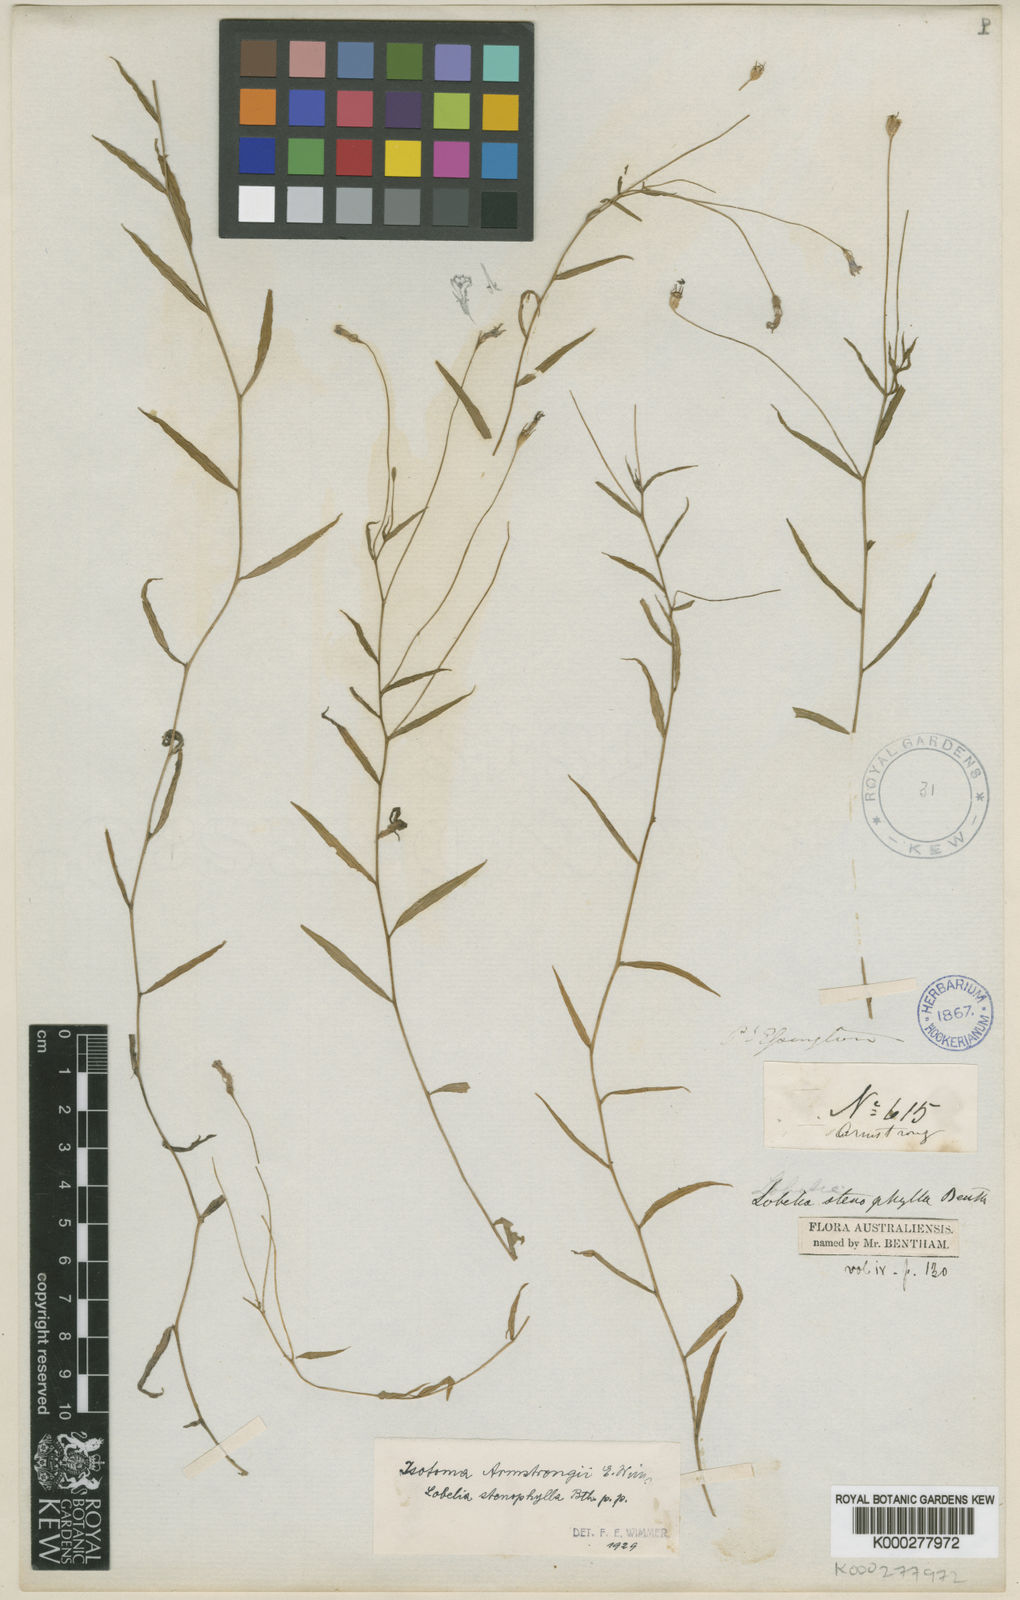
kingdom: Plantae
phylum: Tracheophyta
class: Magnoliopsida
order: Asterales
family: Campanulaceae
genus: Isotoma
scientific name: Isotoma armstrongii
